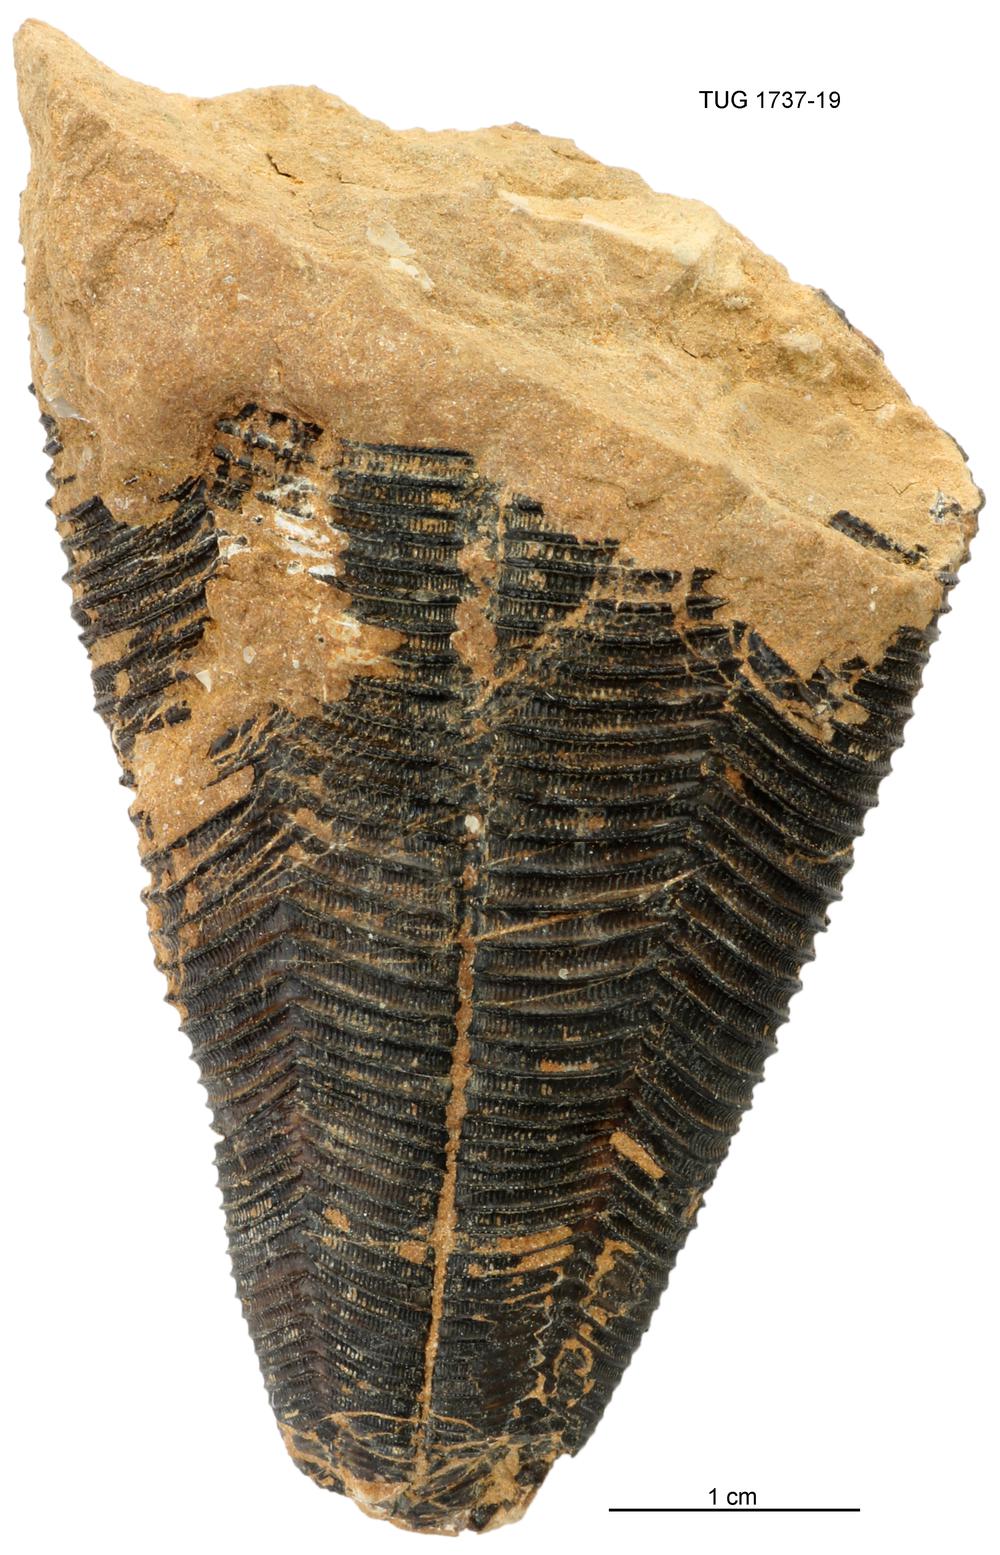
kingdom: Animalia
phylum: Cnidaria
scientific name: Cnidaria
